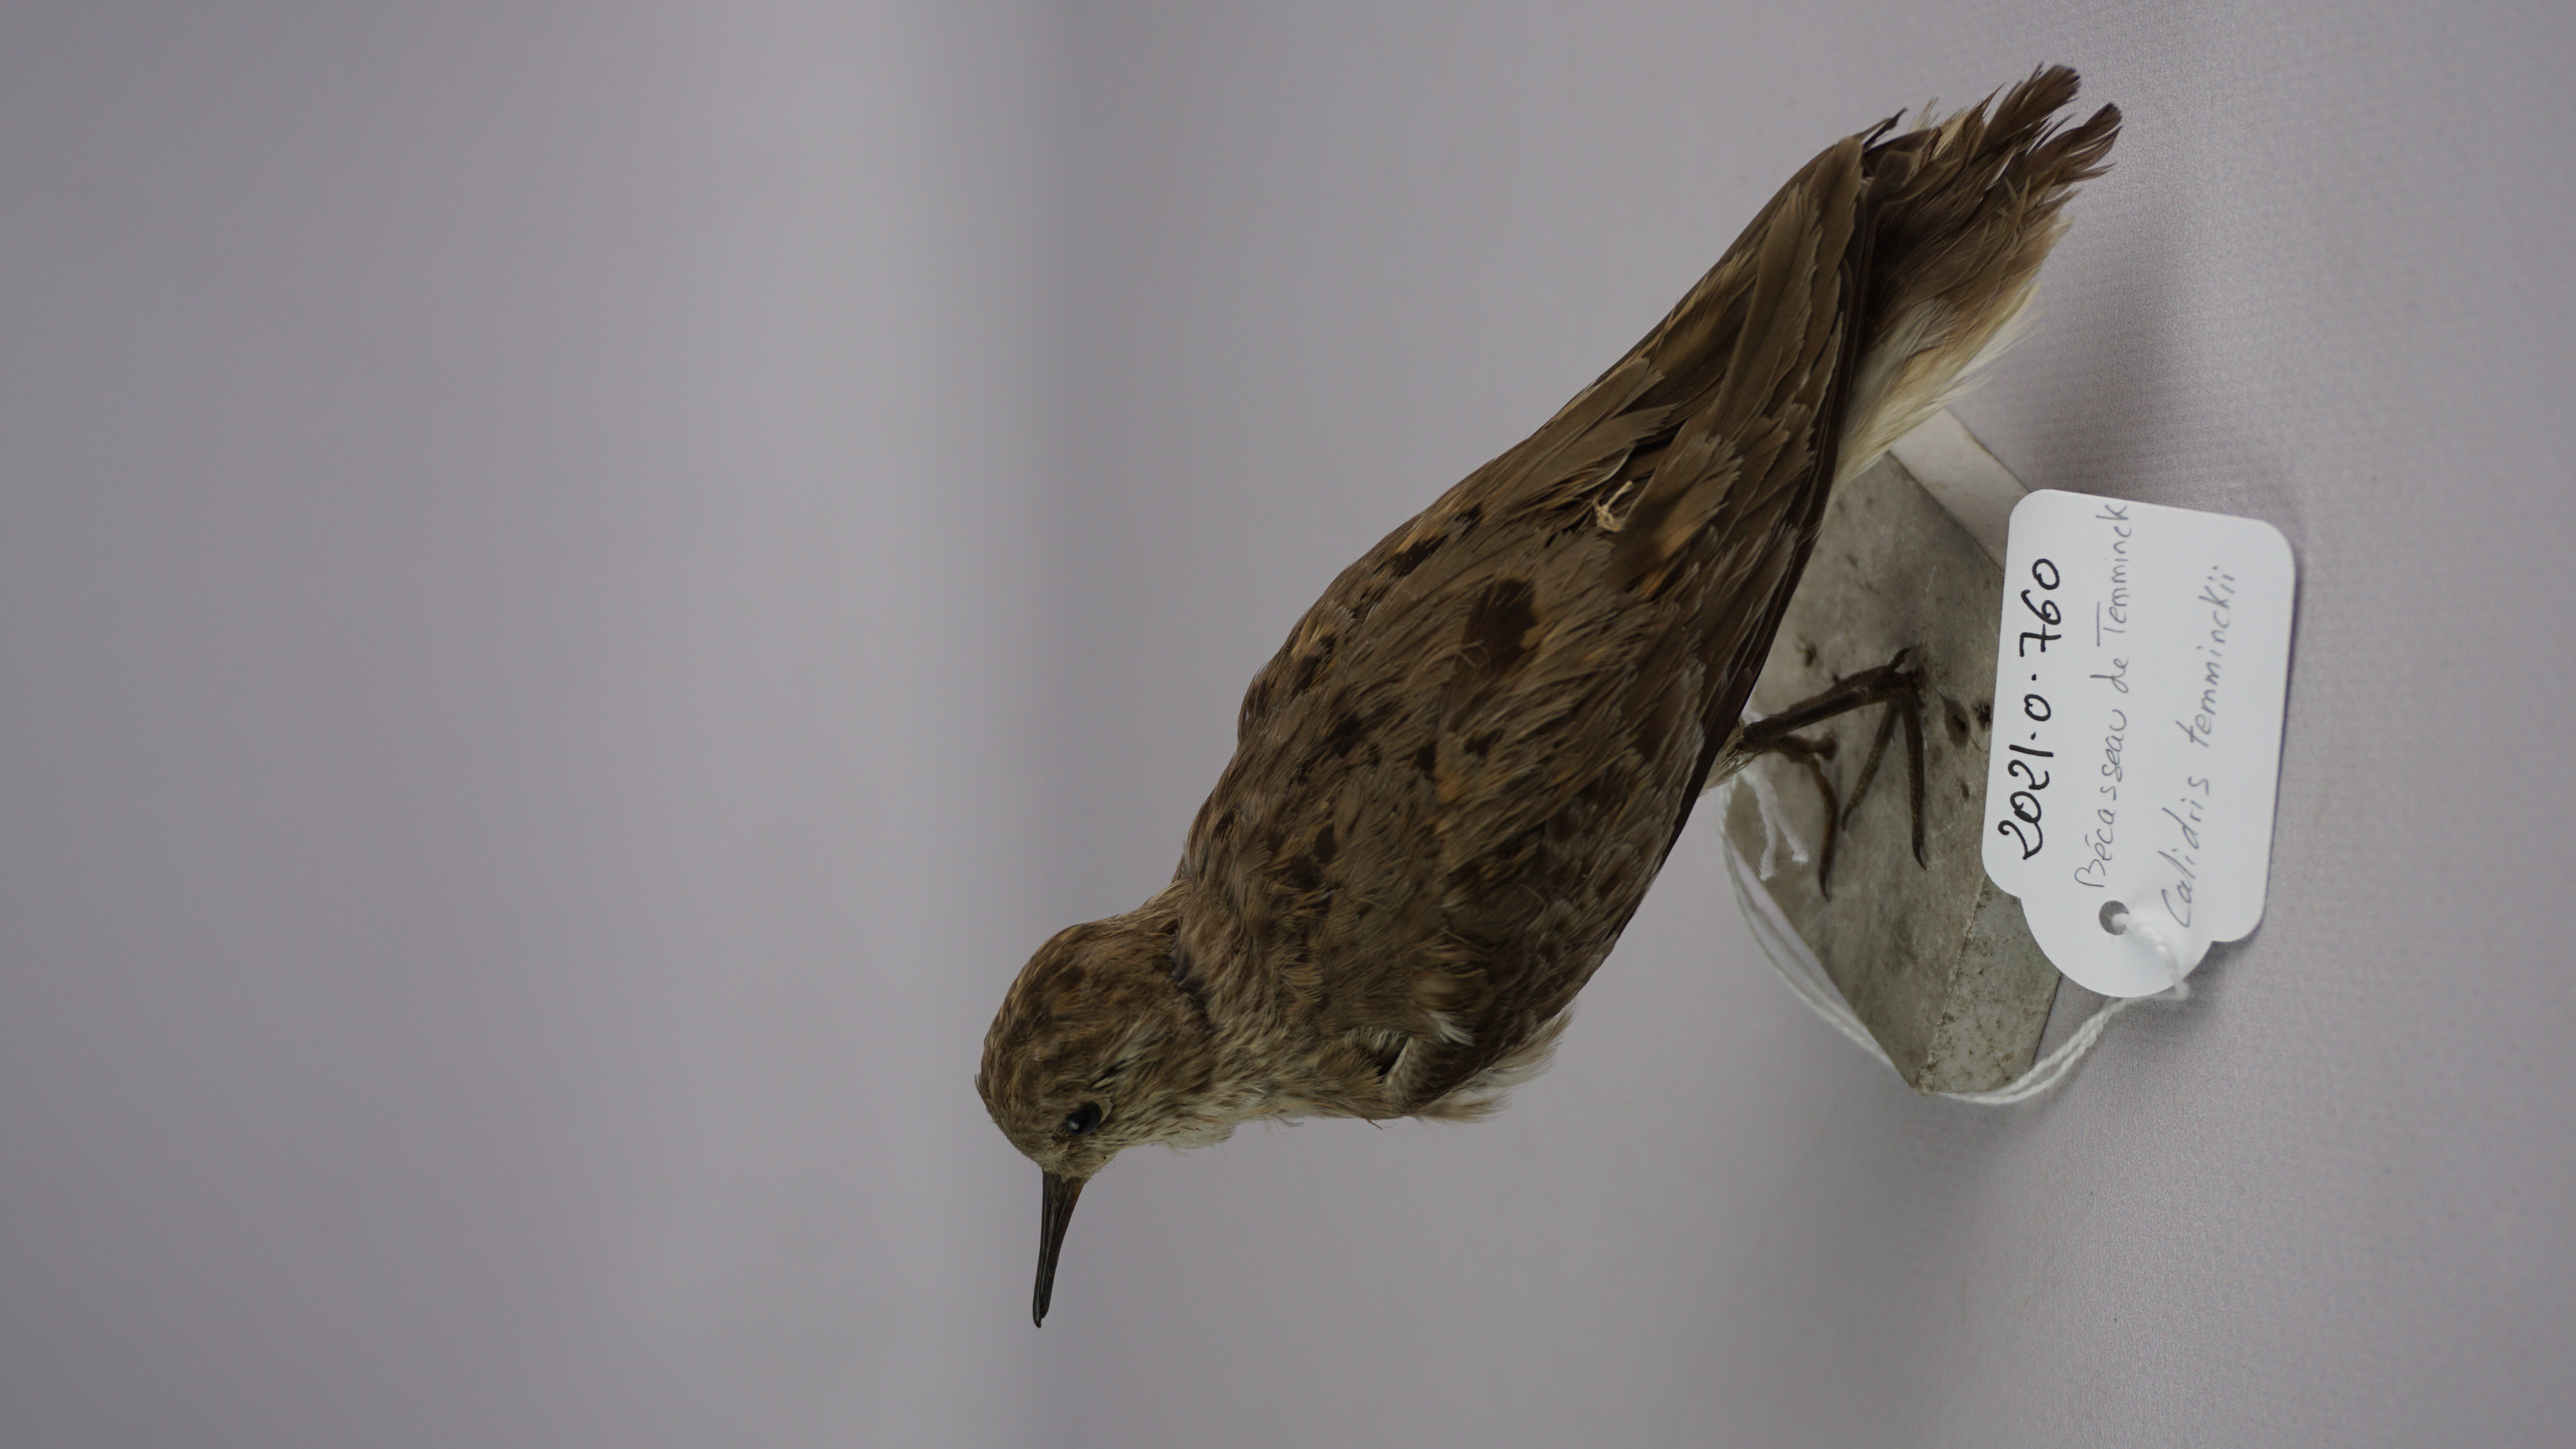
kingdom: Animalia
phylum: Chordata
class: Aves
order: Charadriiformes
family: Scolopacidae
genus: Calidris
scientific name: Calidris temminckii
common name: Temminck's stint
